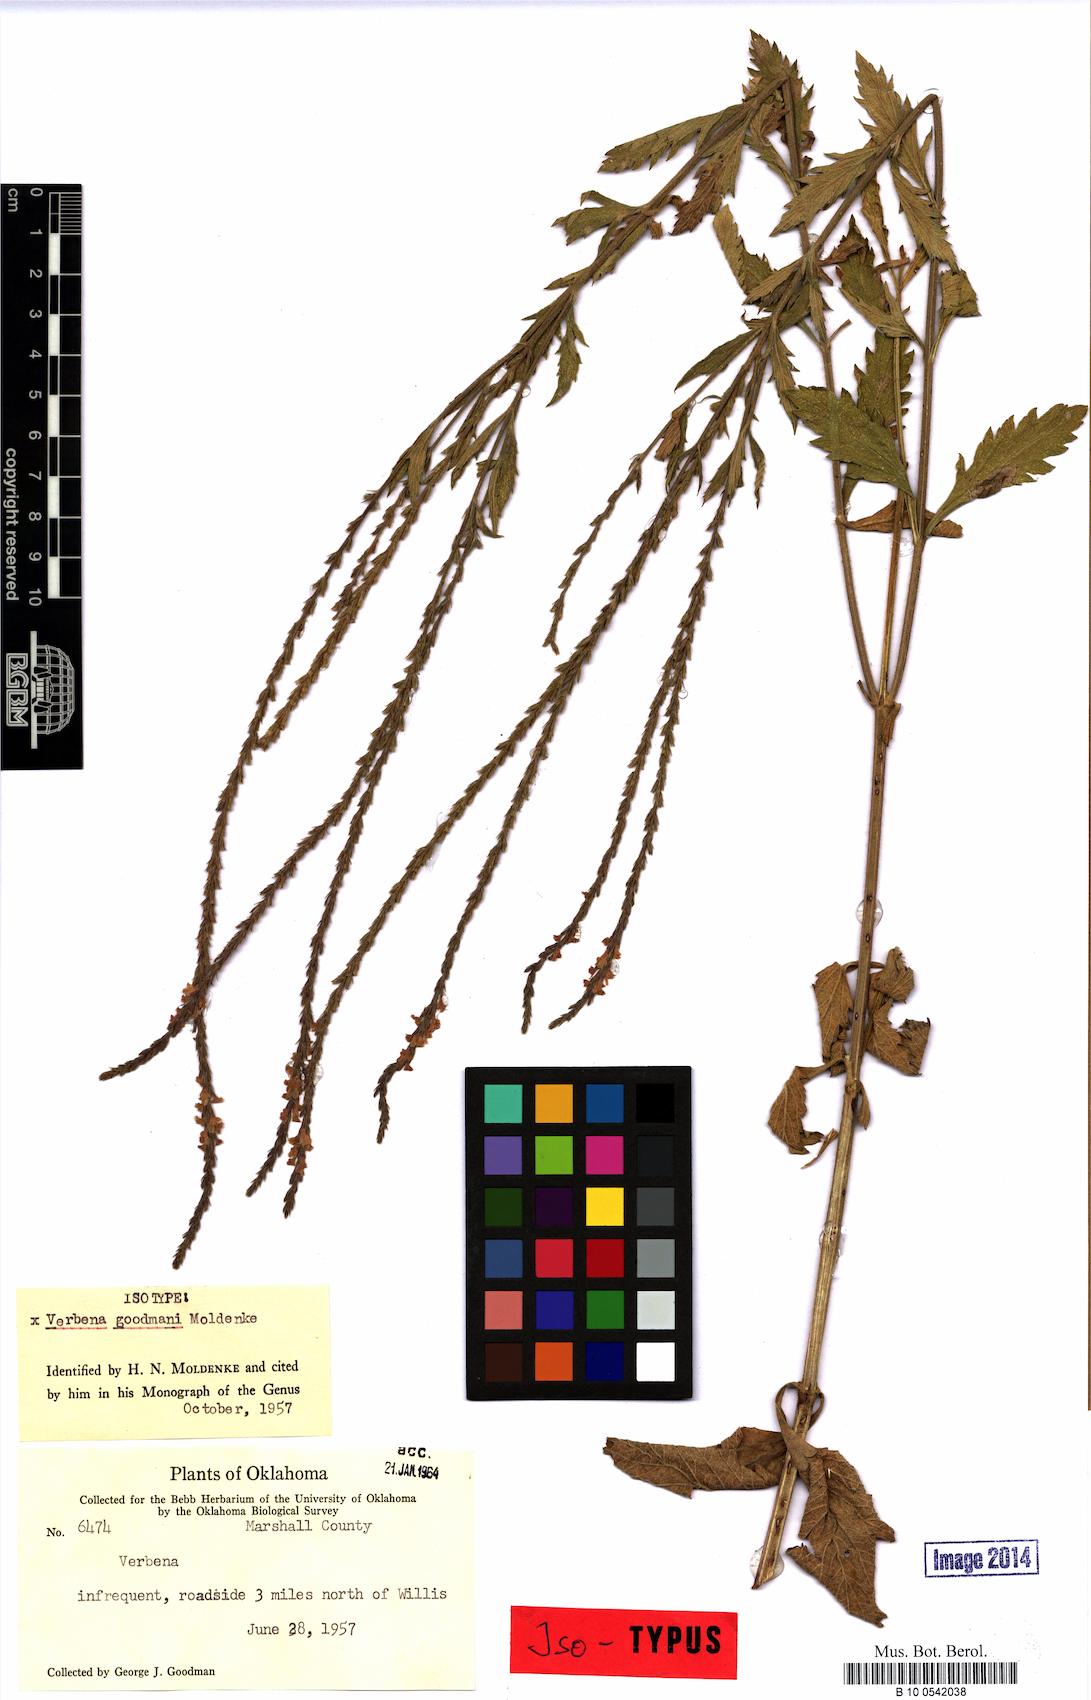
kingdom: Plantae
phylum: Tracheophyta
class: Magnoliopsida
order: Lamiales
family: Verbenaceae
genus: Verbena
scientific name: Verbena goodmanii
